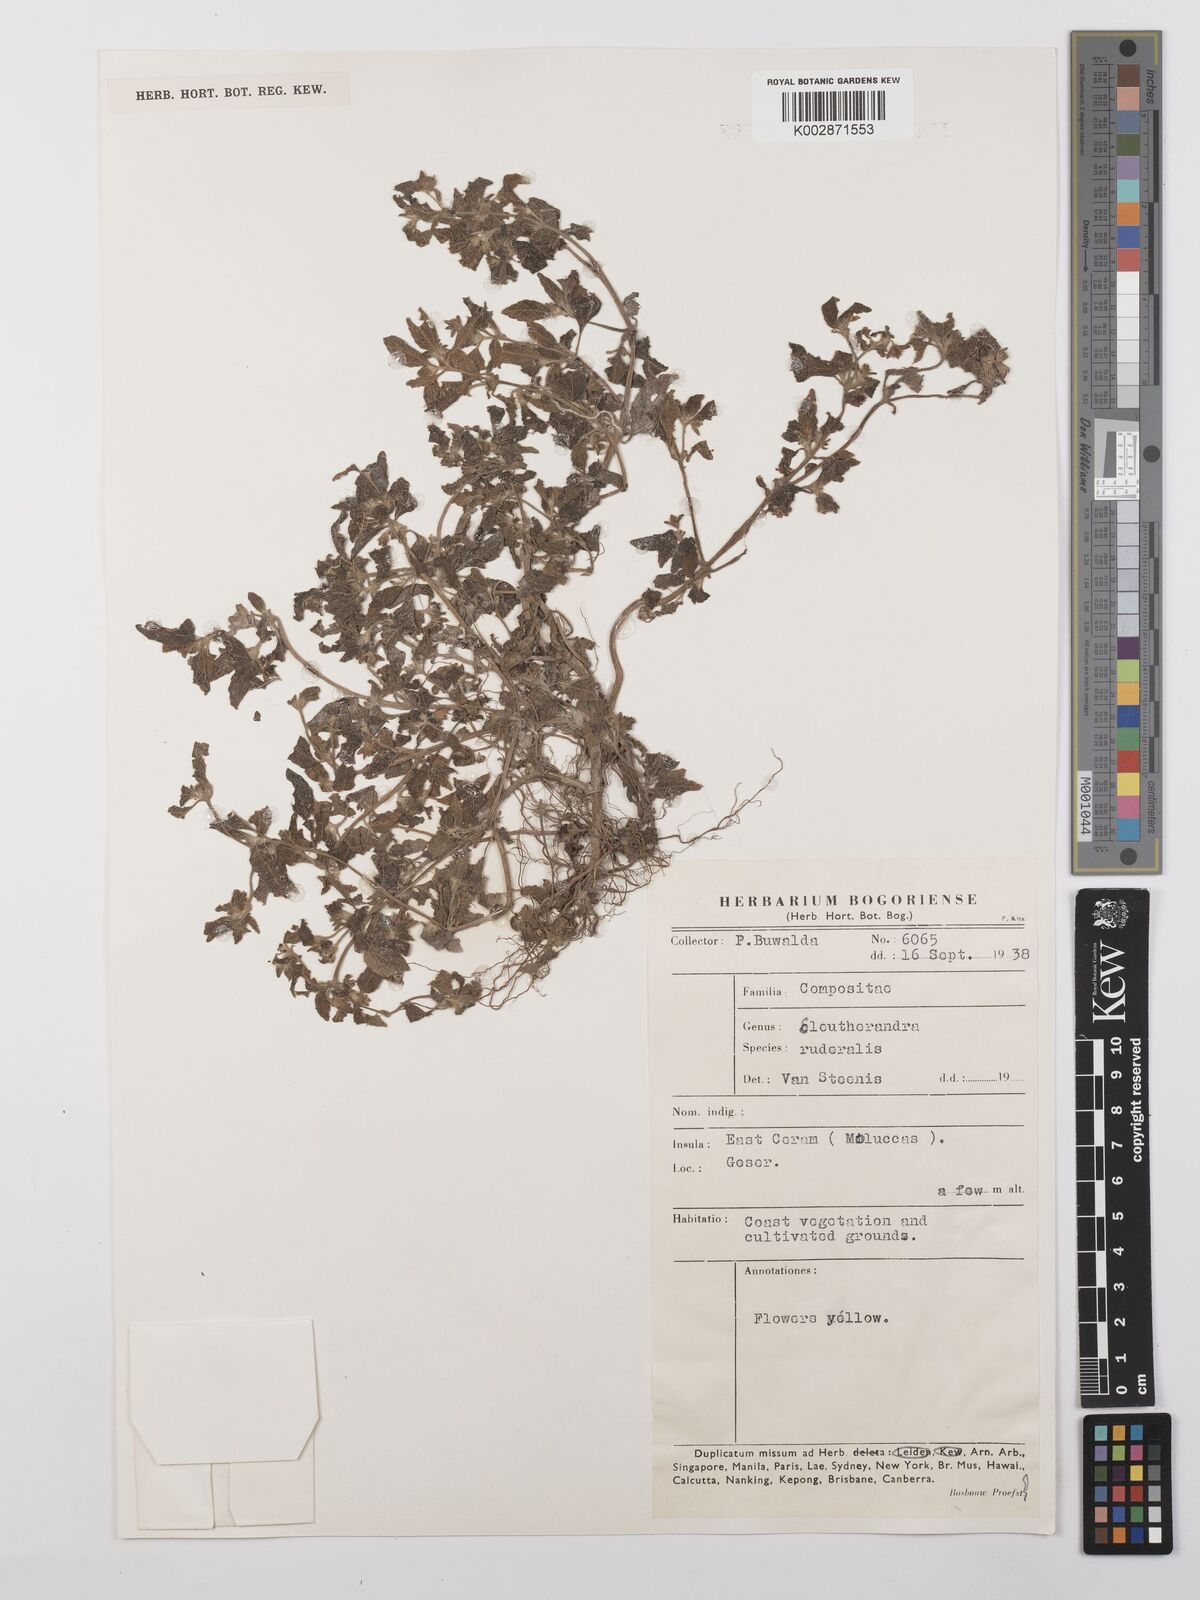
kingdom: Plantae
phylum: Tracheophyta
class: Magnoliopsida
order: Asterales
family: Asteraceae
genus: Eleutheranthera
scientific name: Eleutheranthera ruderalis
